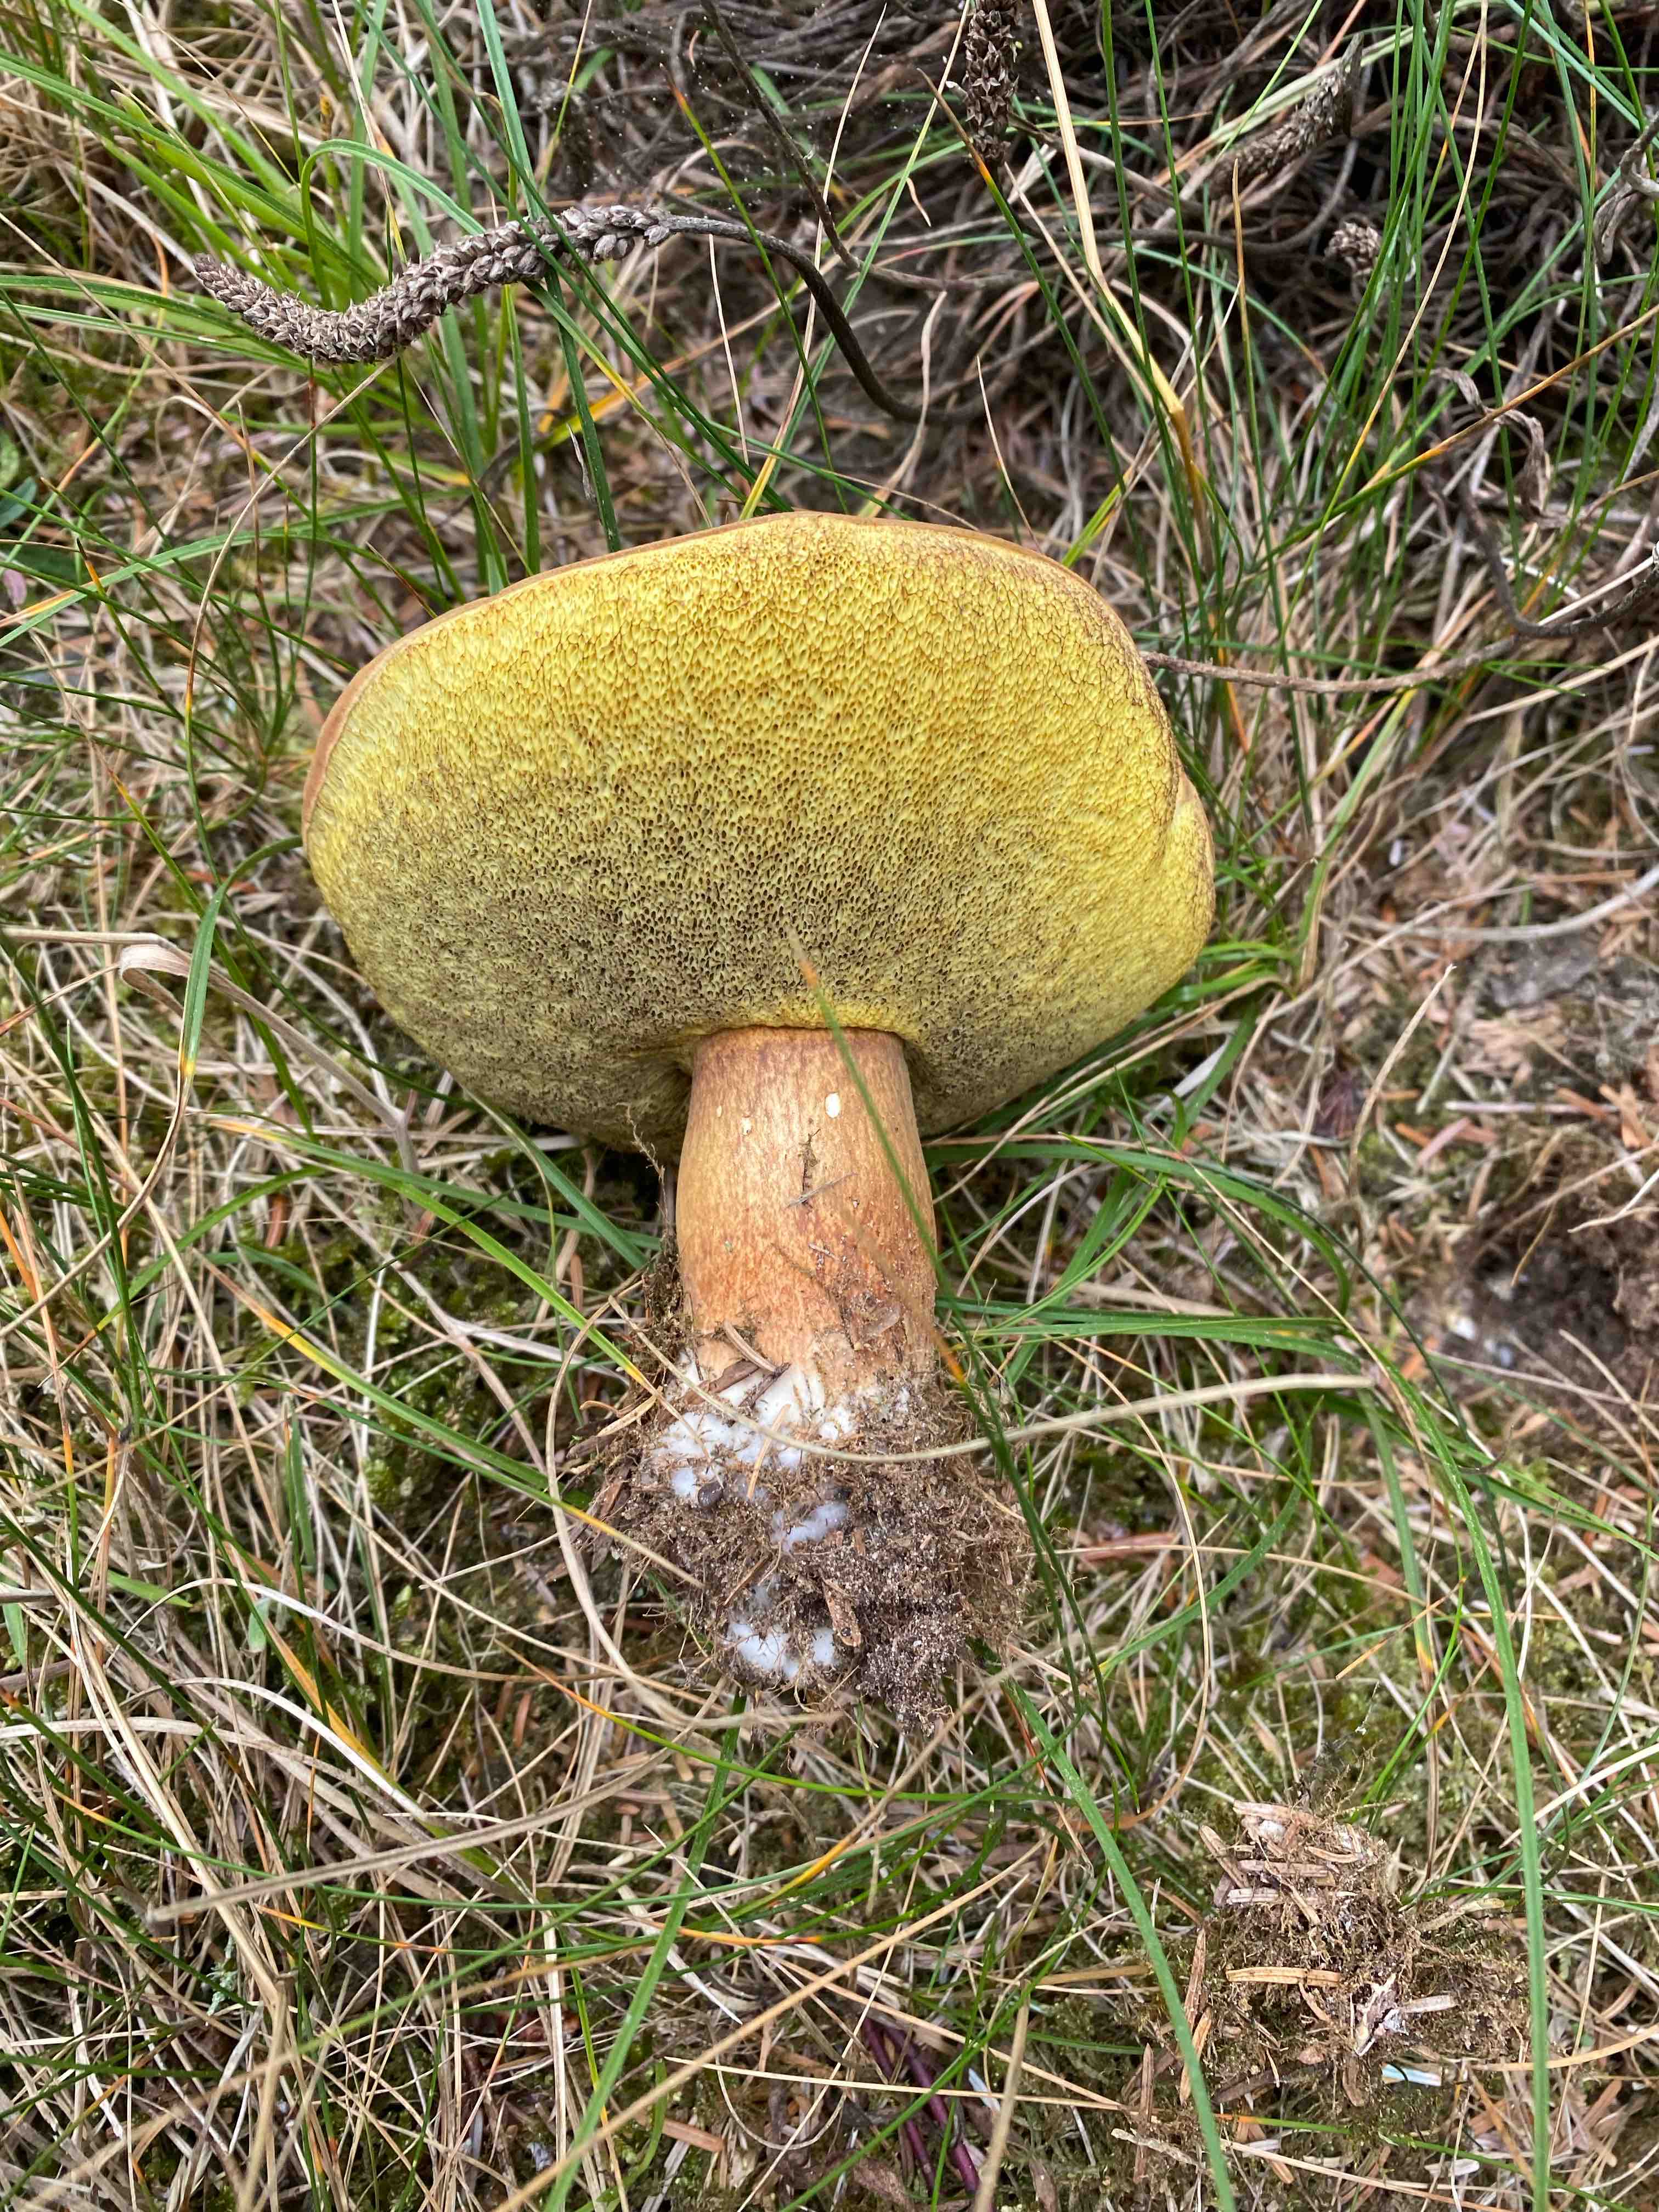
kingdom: Fungi
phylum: Basidiomycota
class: Agaricomycetes
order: Boletales
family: Boletaceae
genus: Imleria
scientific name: Imleria badia
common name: brunstokket rørhat
